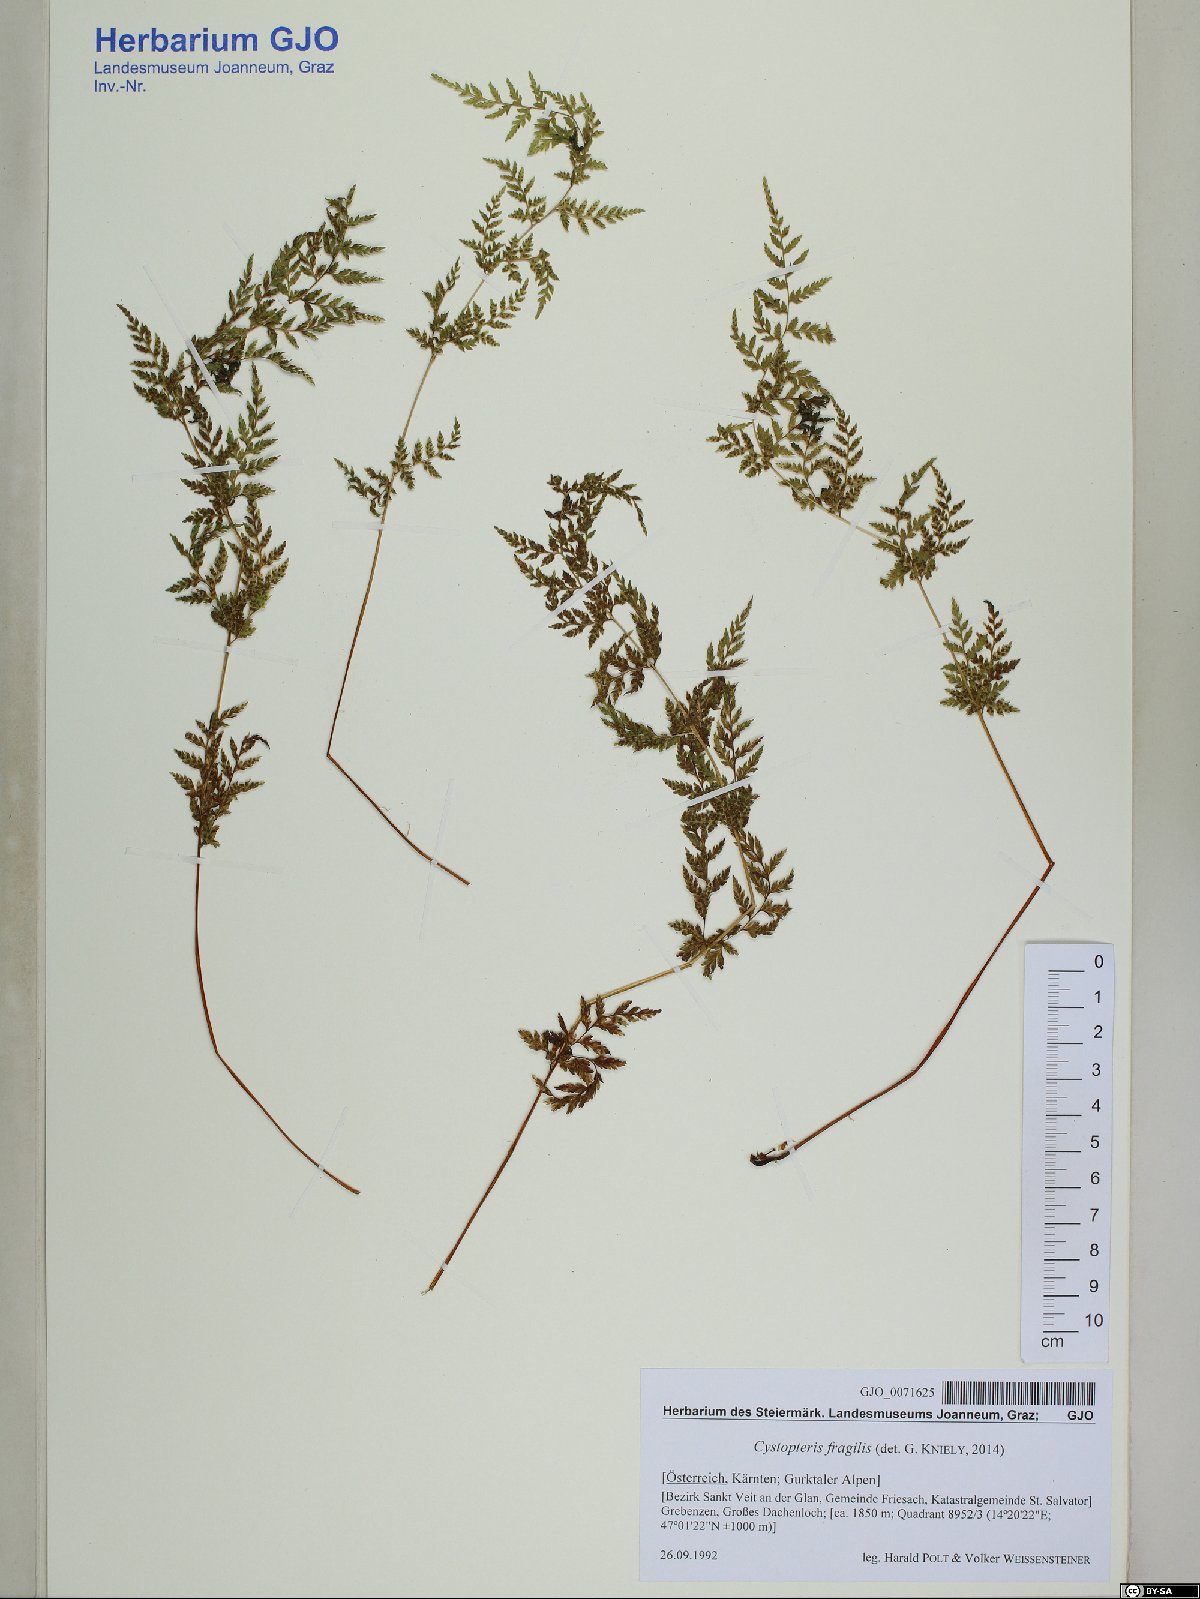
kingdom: Plantae
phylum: Tracheophyta
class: Polypodiopsida
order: Polypodiales
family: Cystopteridaceae
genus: Cystopteris
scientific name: Cystopteris fragilis
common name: Brittle bladder fern
